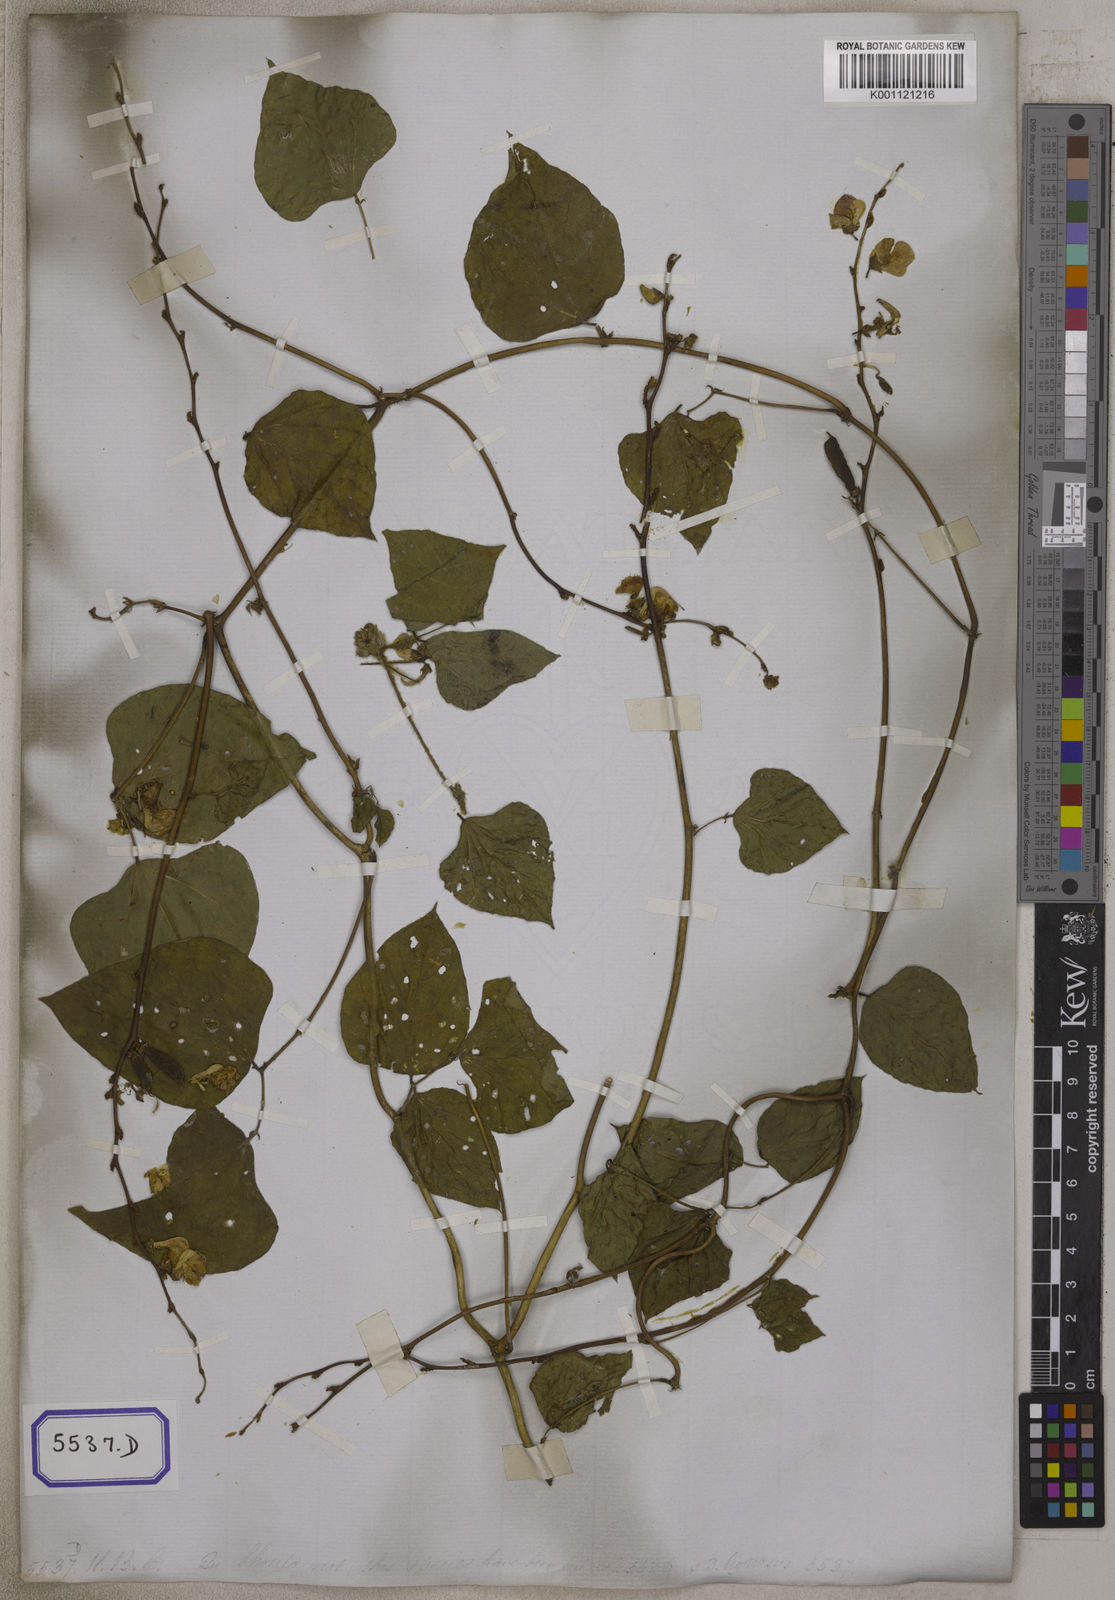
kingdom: Plantae
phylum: Tracheophyta
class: Magnoliopsida
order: Fabales
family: Fabaceae
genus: Lablab
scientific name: Lablab purpureus
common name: Lablab-bean
